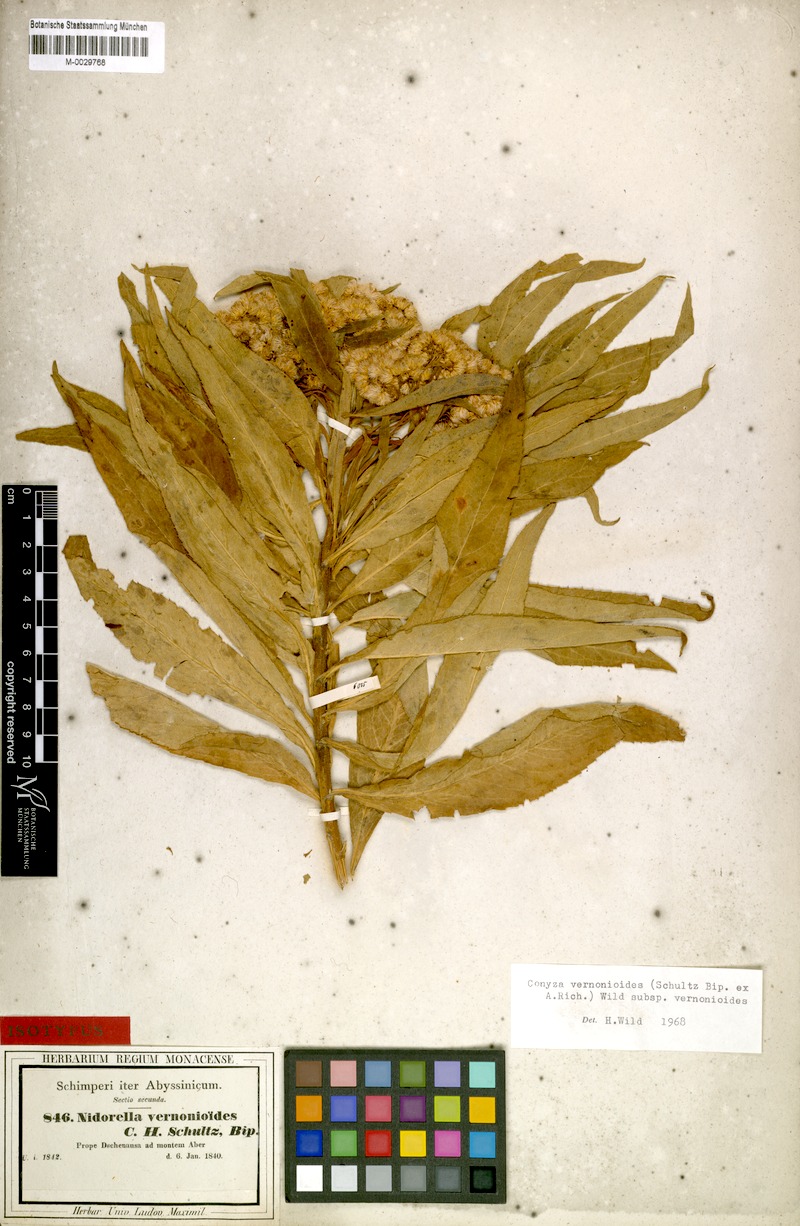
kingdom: Plantae
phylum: Tracheophyta
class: Magnoliopsida
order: Asterales
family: Asteraceae
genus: Nidorella
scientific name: Nidorella vernonioides
